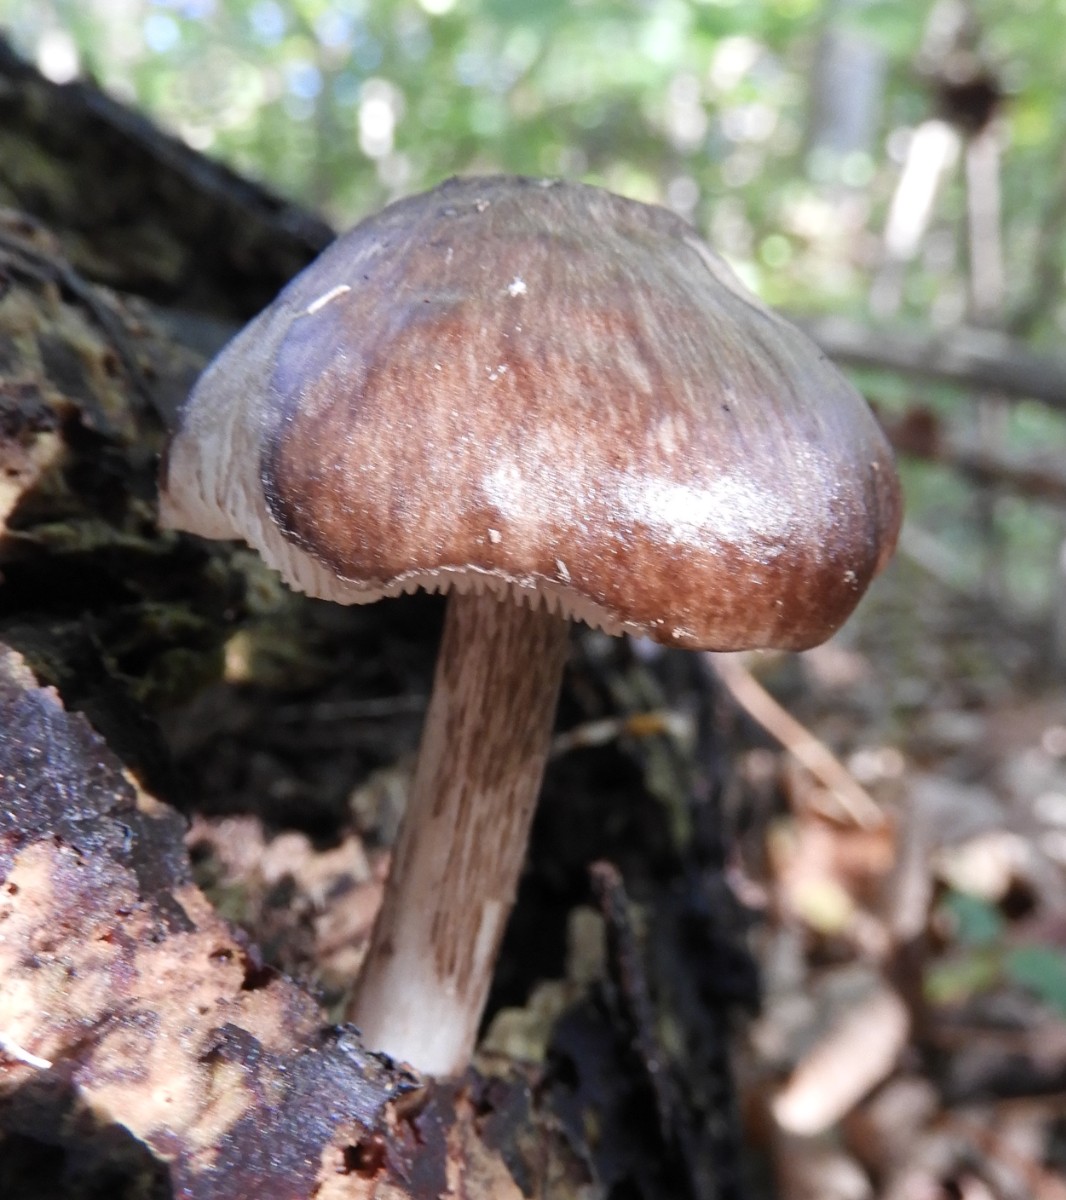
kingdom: Fungi
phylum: Basidiomycota
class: Agaricomycetes
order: Agaricales
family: Pluteaceae
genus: Pluteus
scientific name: Pluteus cervinus
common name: sodfarvet skærmhat
